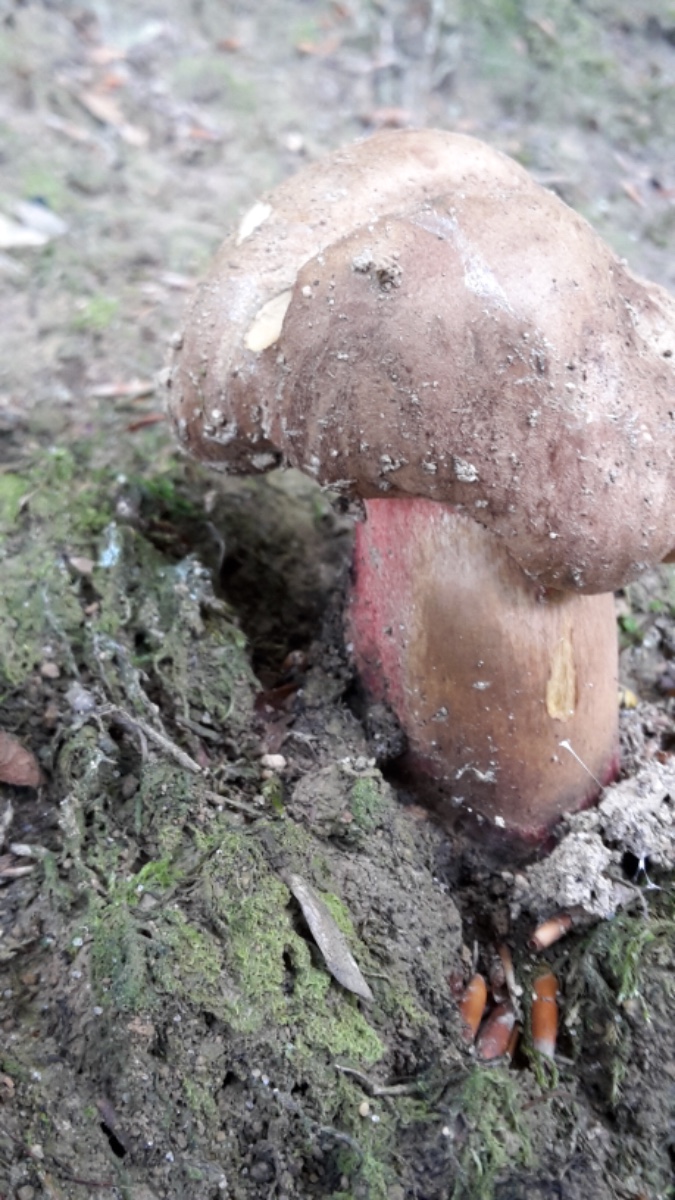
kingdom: Fungi
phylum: Basidiomycota
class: Agaricomycetes
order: Boletales
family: Boletaceae
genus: Caloboletus
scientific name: Caloboletus calopus
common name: skønfodet rørhat
